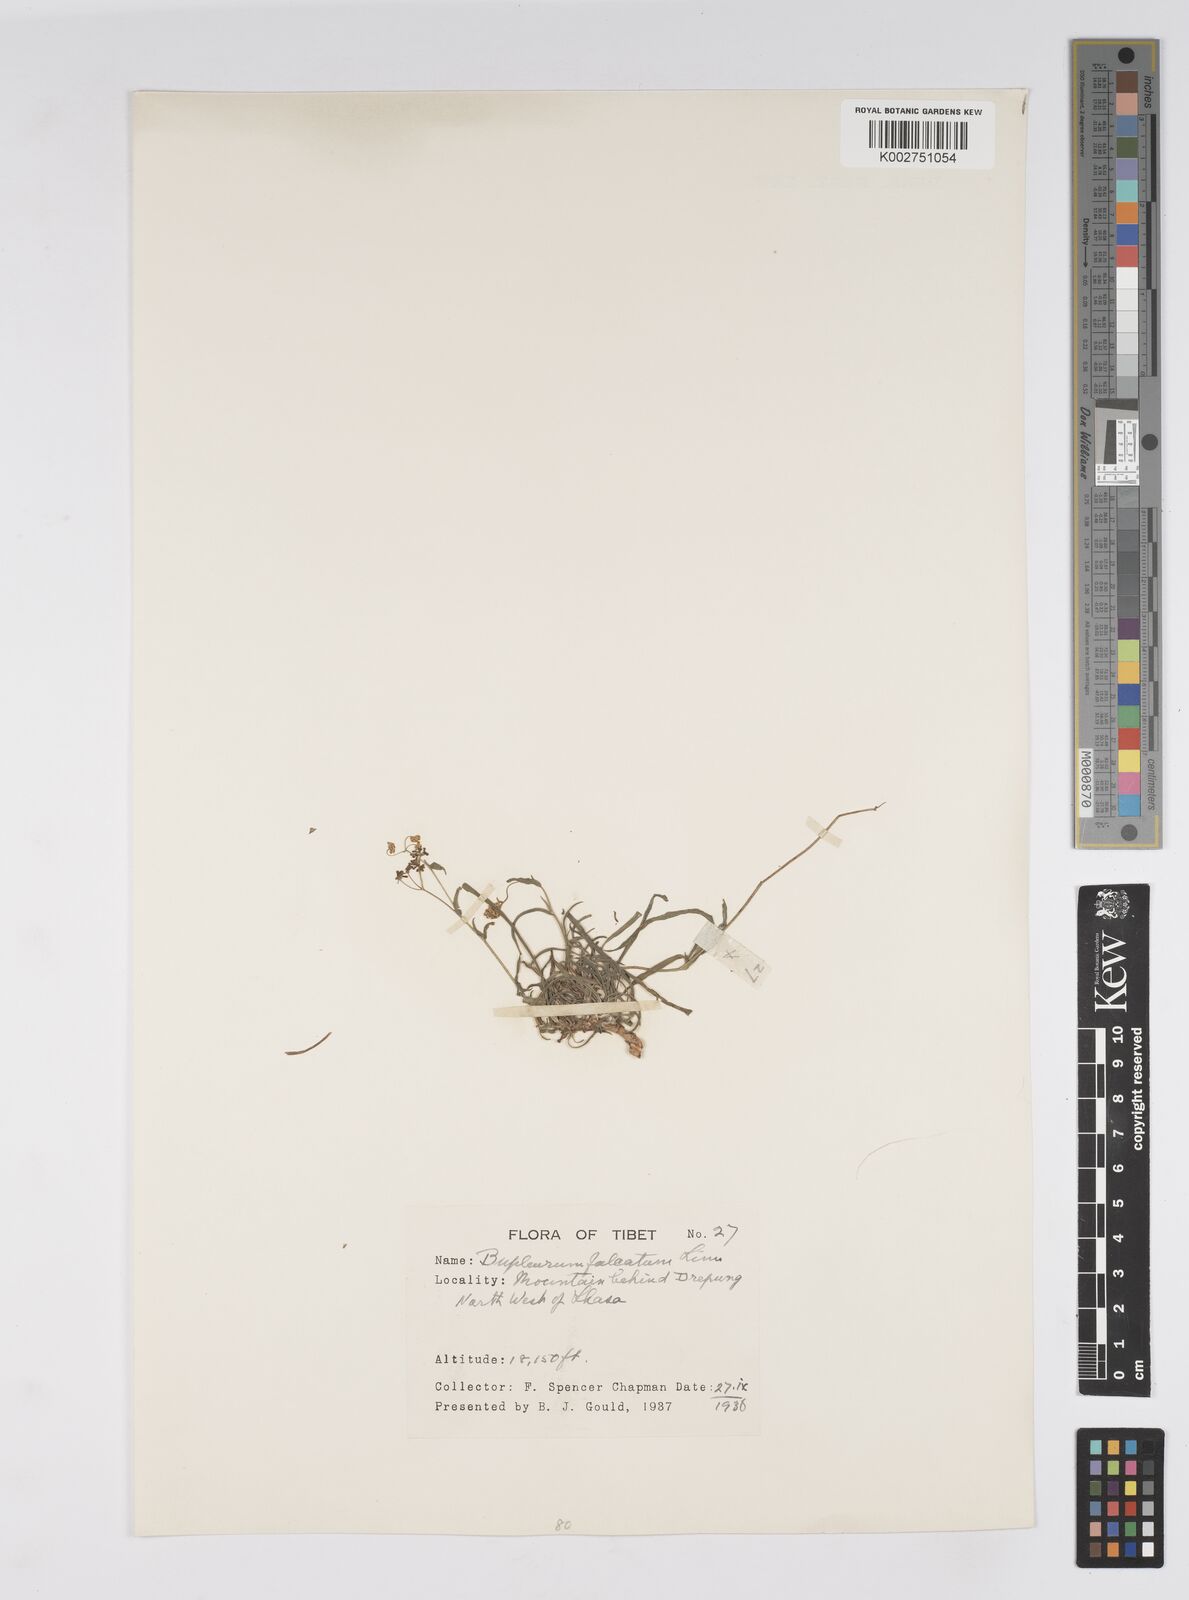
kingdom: Plantae
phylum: Tracheophyta
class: Magnoliopsida
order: Apiales
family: Apiaceae
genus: Bupleurum
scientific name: Bupleurum falcatum
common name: Sickle-leaved hare's-ear
